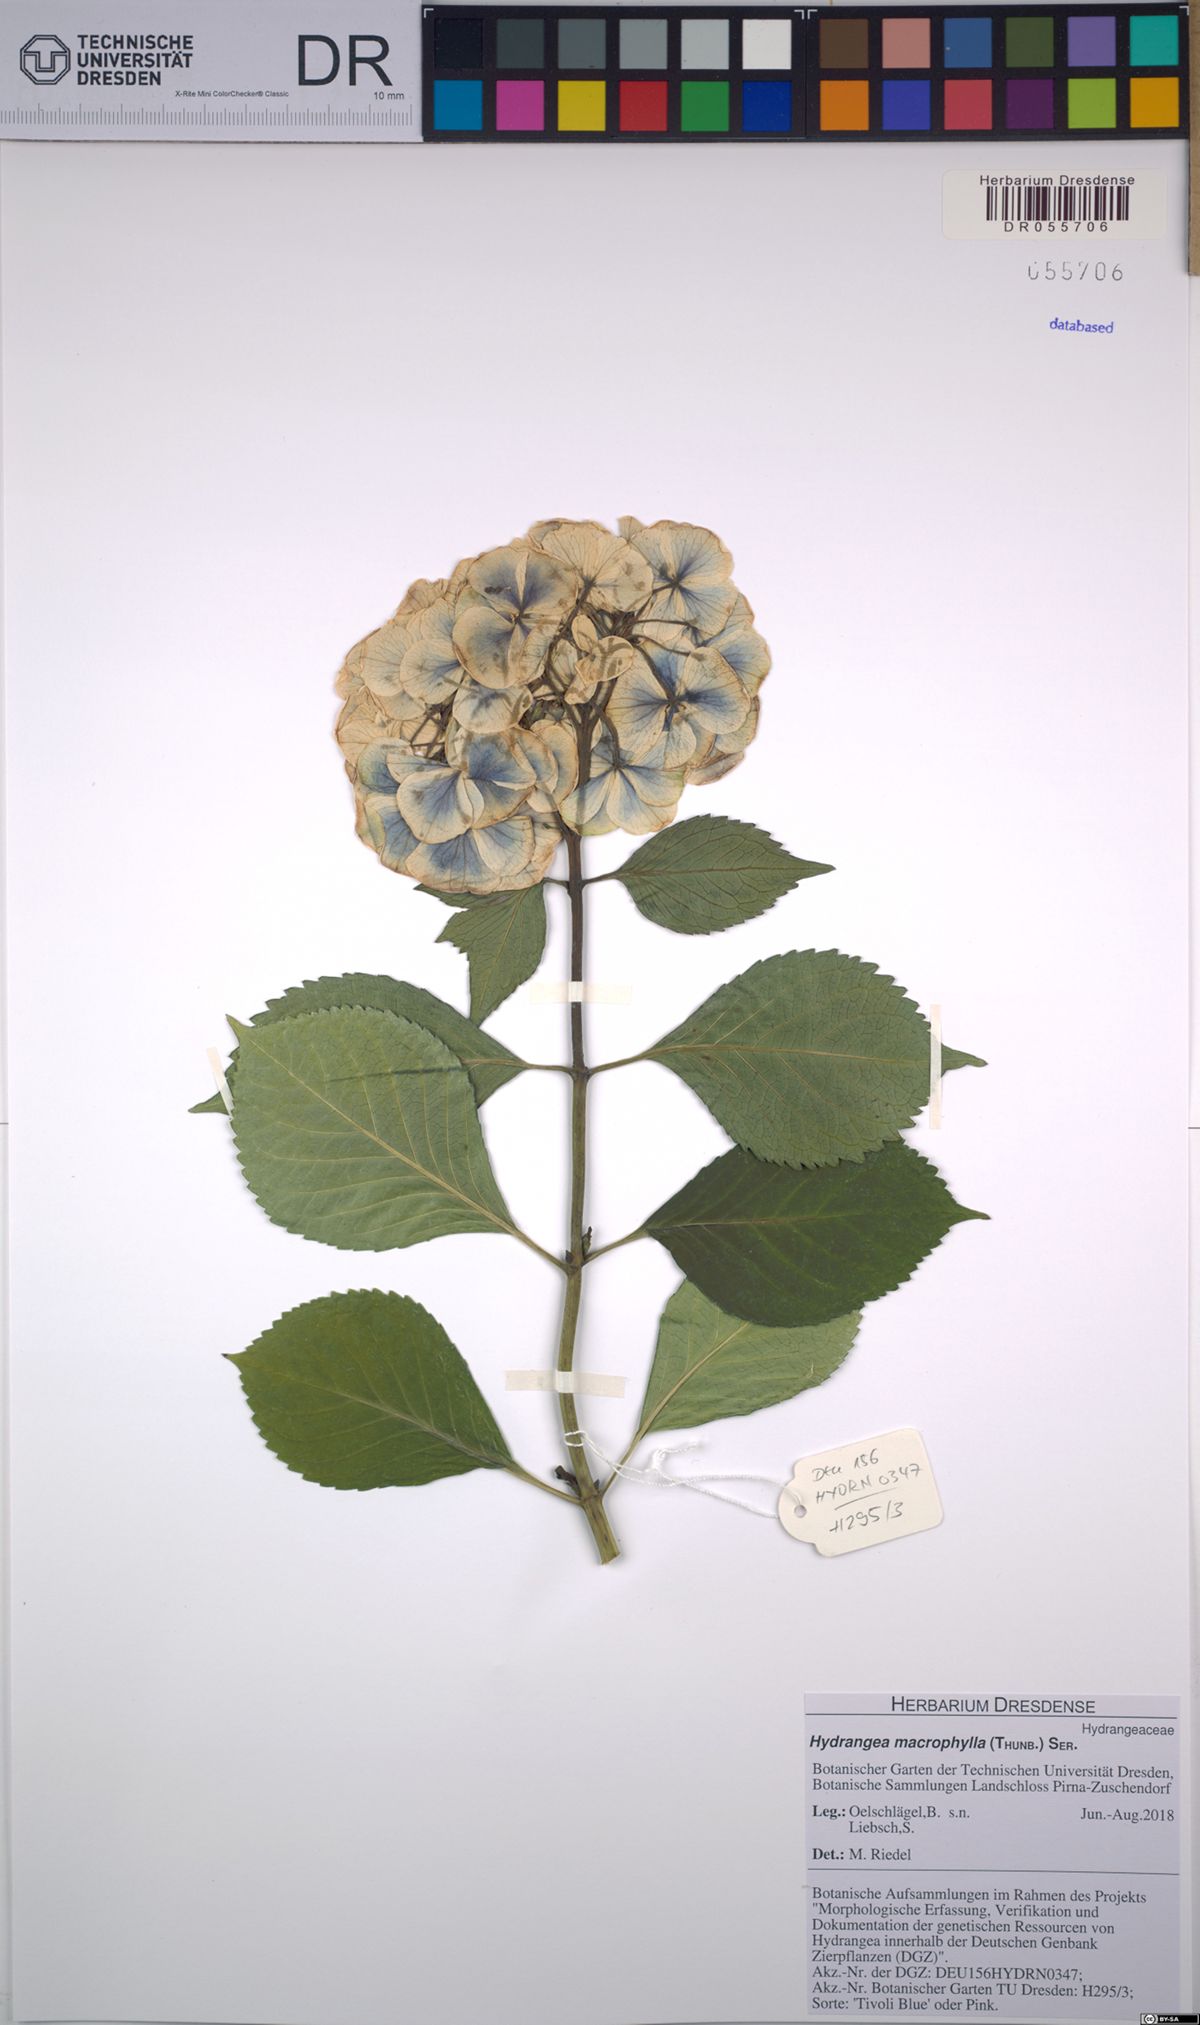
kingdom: Plantae
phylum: Tracheophyta
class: Magnoliopsida
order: Cornales
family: Hydrangeaceae
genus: Hydrangea
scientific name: Hydrangea macrophylla
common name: Hydrangea
